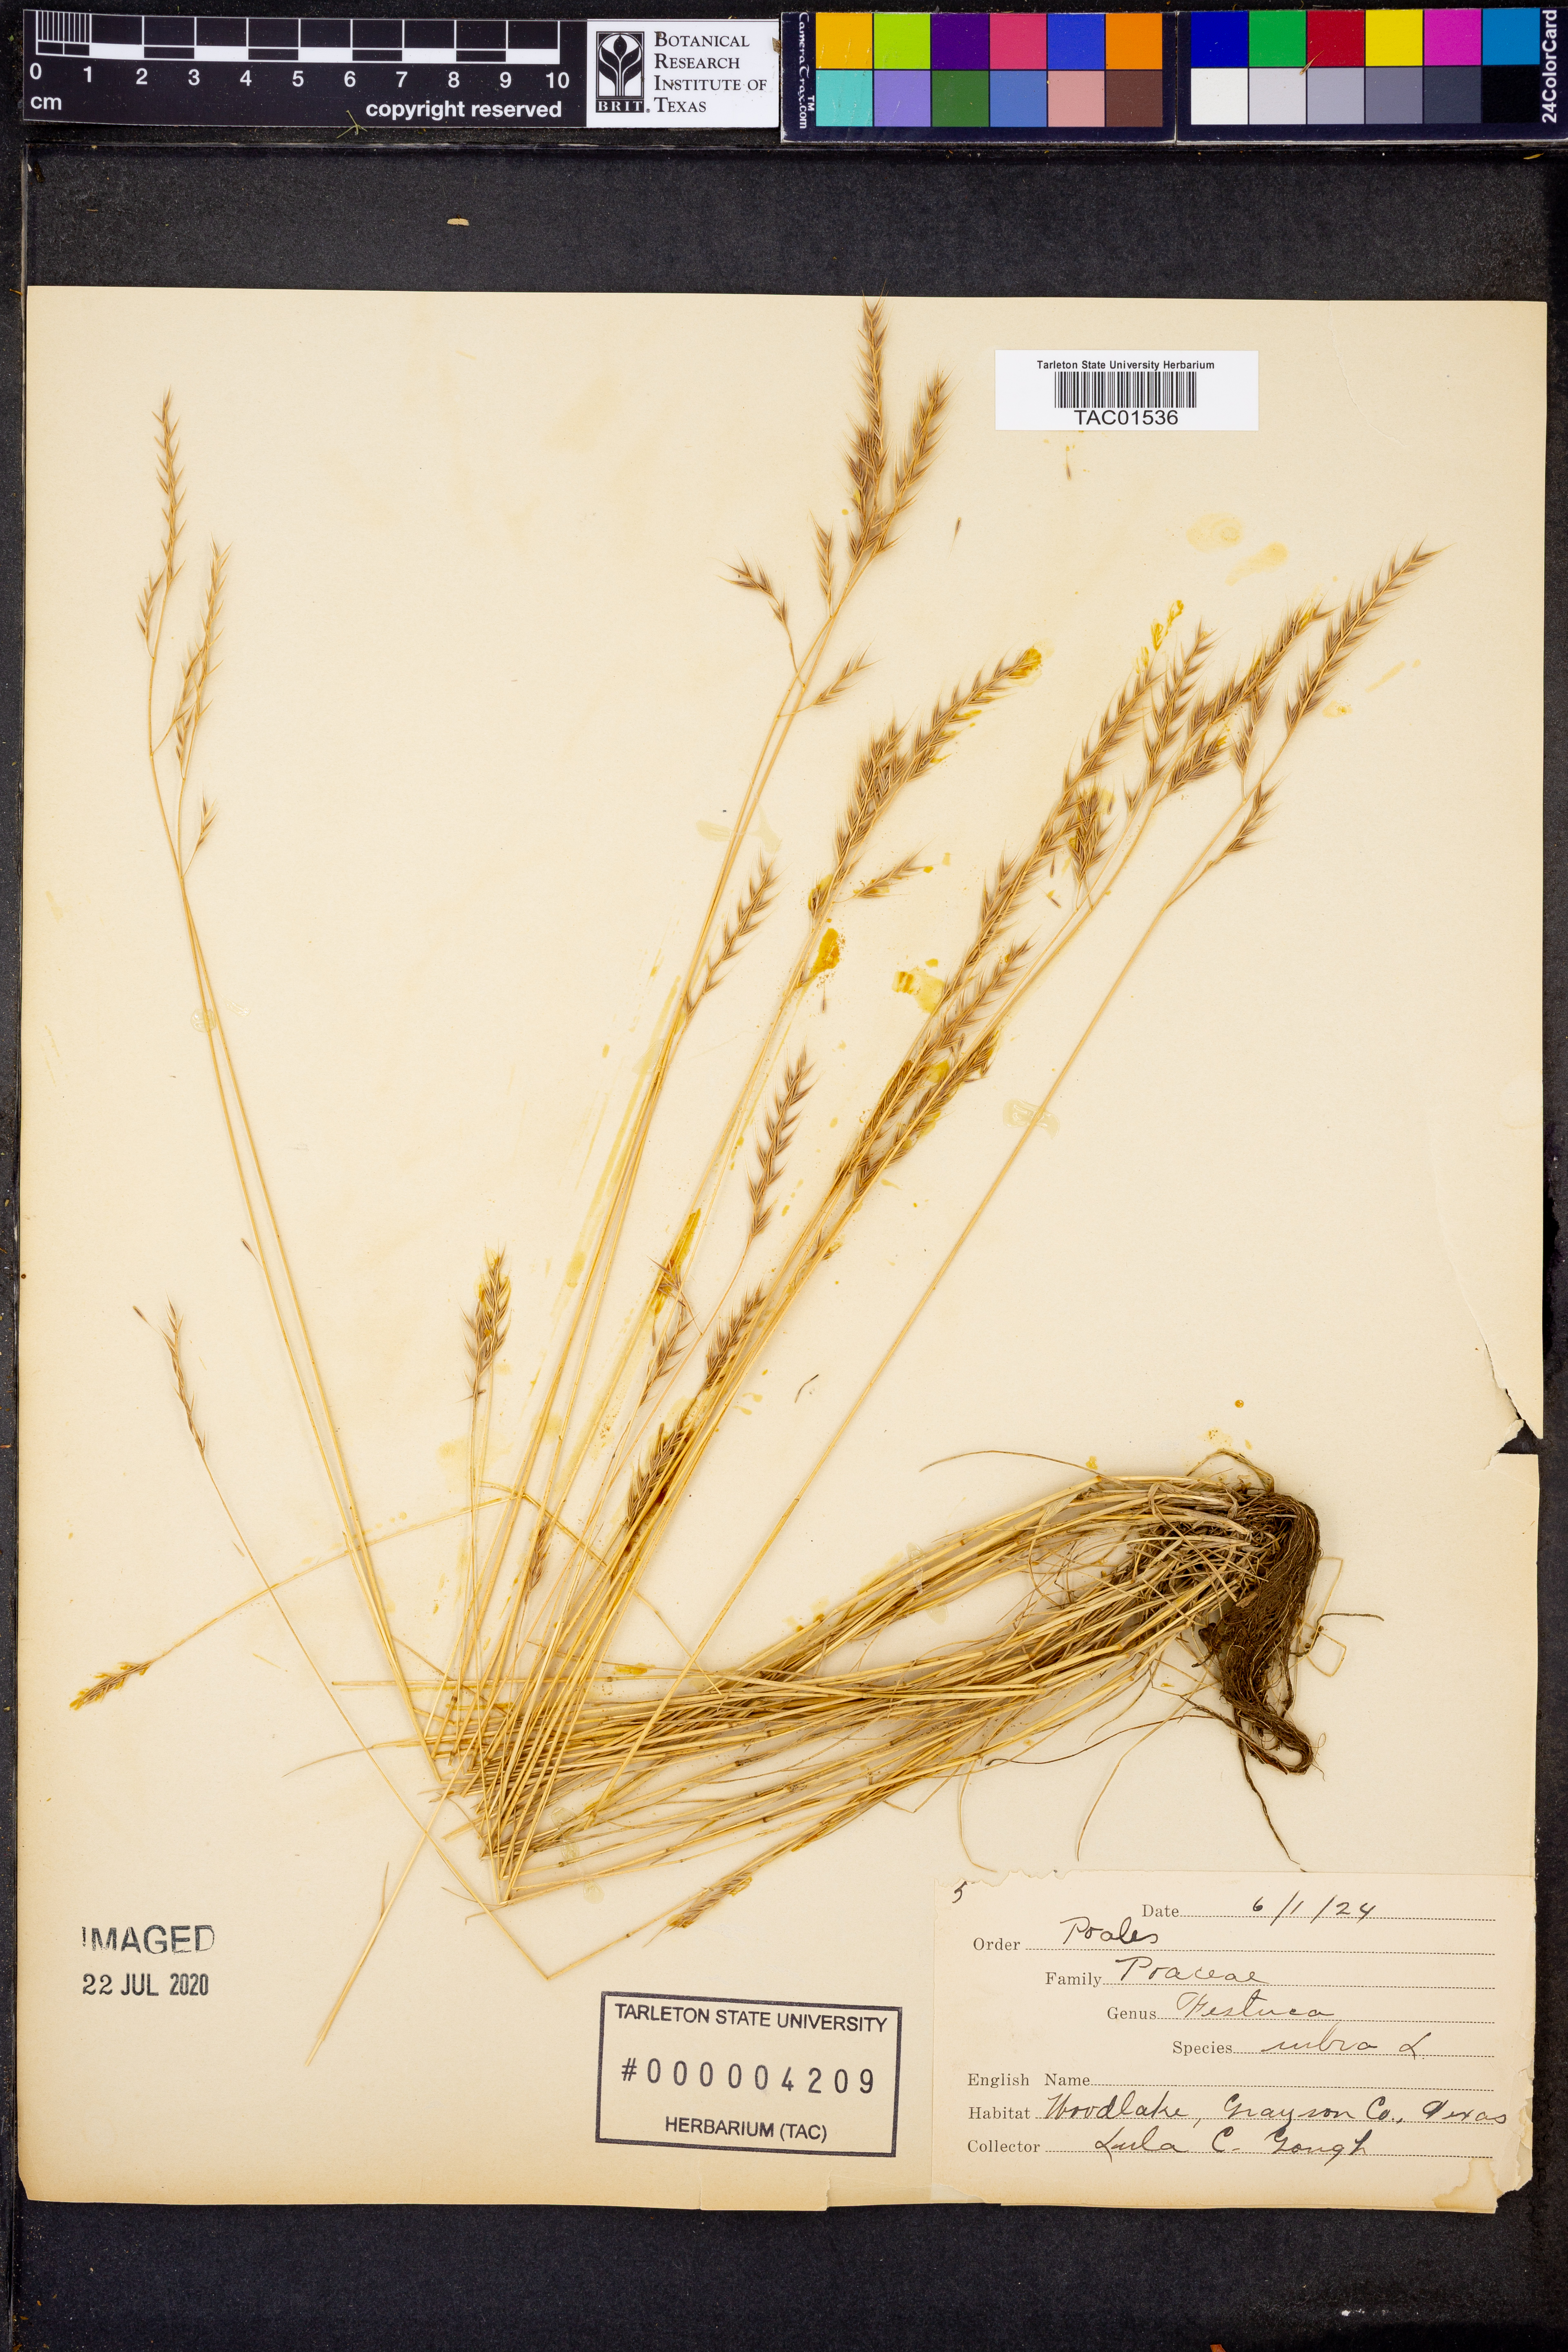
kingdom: Plantae
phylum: Tracheophyta
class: Liliopsida
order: Poales
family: Poaceae
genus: Festuca
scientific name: Festuca rubra
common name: Red fescue
